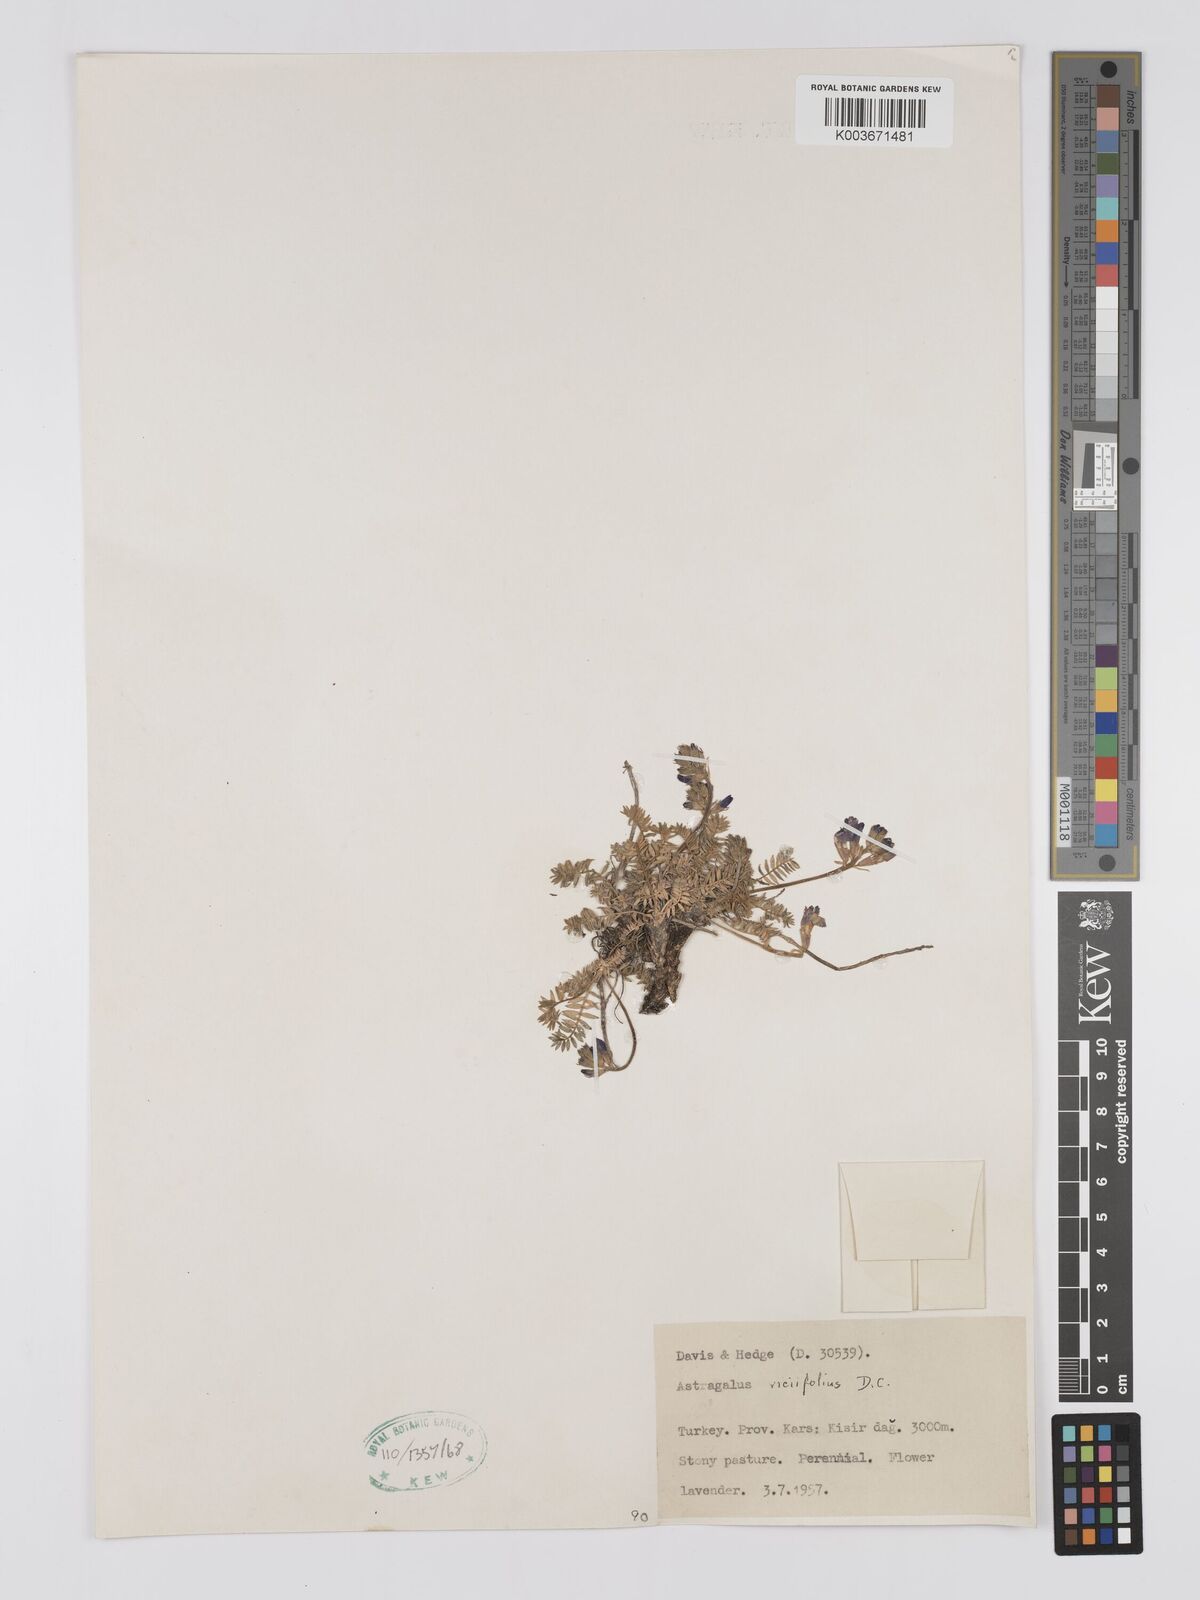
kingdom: Plantae
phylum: Tracheophyta
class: Magnoliopsida
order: Fabales
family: Fabaceae
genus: Astragalus
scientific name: Astragalus humifusus
